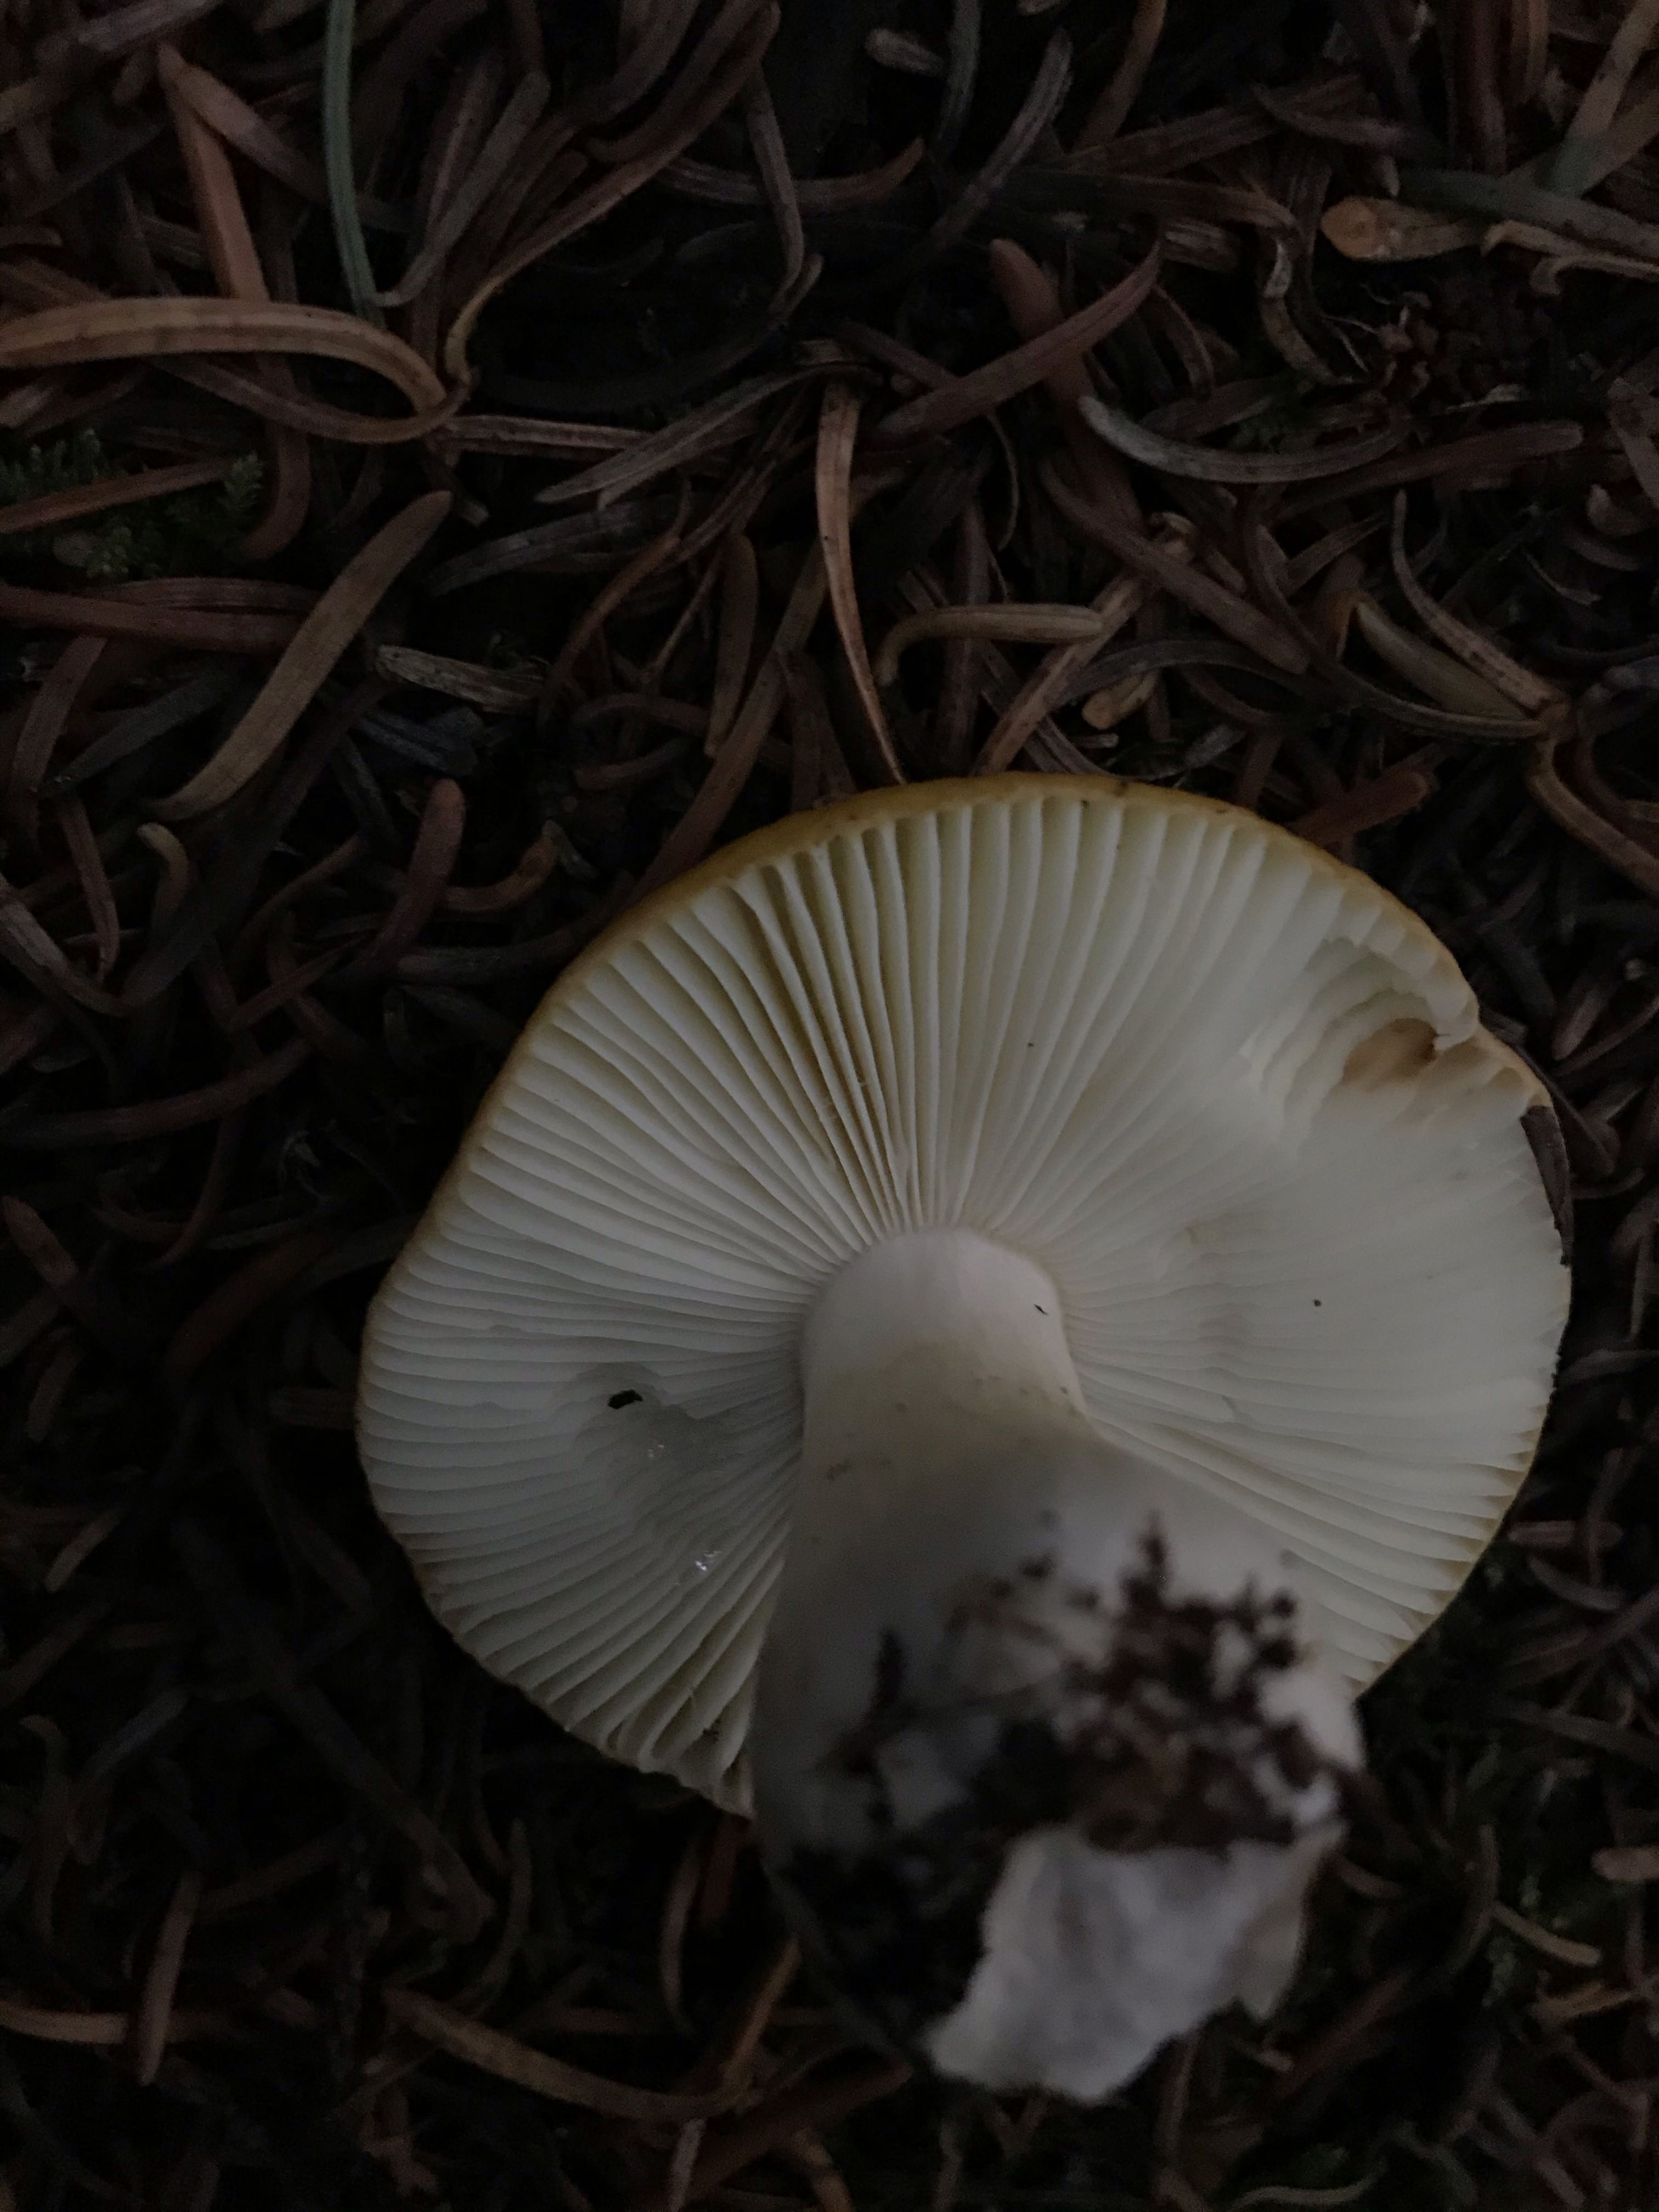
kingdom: Fungi
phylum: Basidiomycota
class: Agaricomycetes
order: Russulales
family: Russulaceae
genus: Russula
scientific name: Russula ochroleuca
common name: okkergul skørhat
